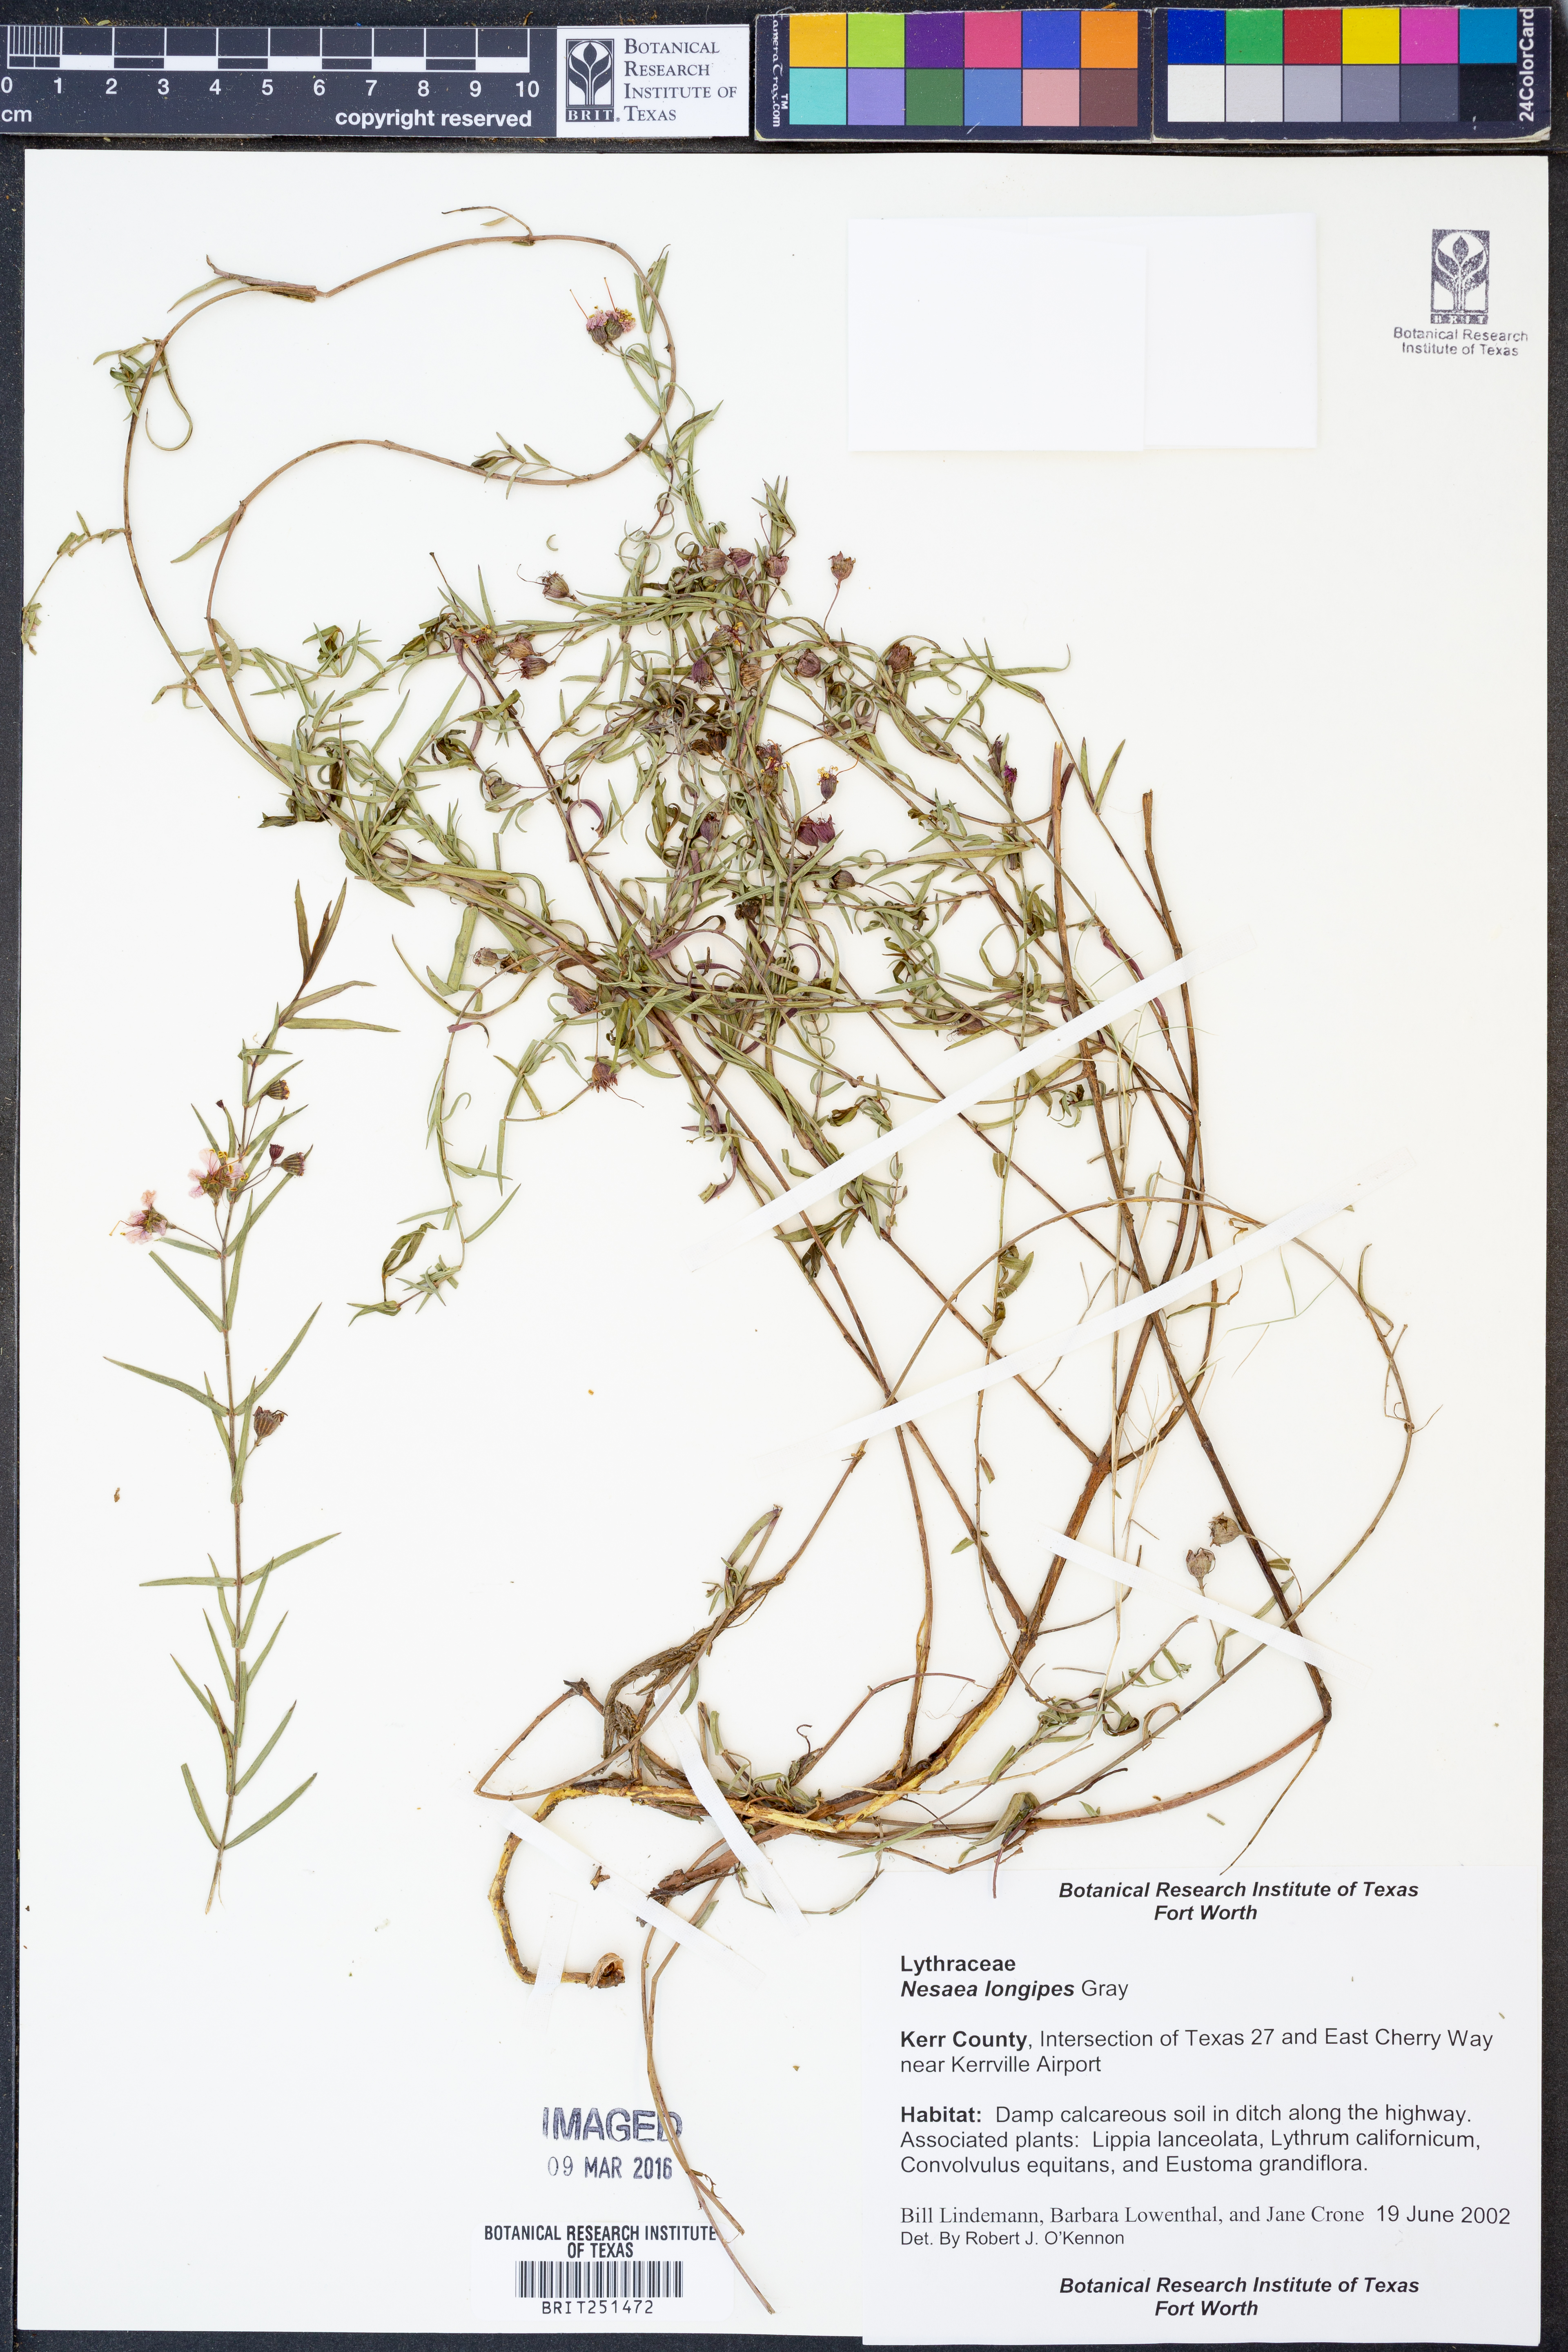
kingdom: Plantae
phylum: Tracheophyta
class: Magnoliopsida
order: Myrtales
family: Lythraceae
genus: Ammannia
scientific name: Ammannia grayi
